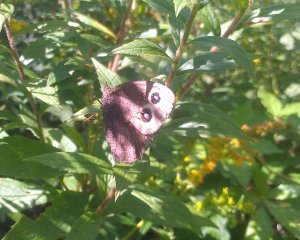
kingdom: Animalia
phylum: Arthropoda
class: Insecta
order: Lepidoptera
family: Nymphalidae
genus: Cercyonis
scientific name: Cercyonis pegala
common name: Common Wood-Nymph
